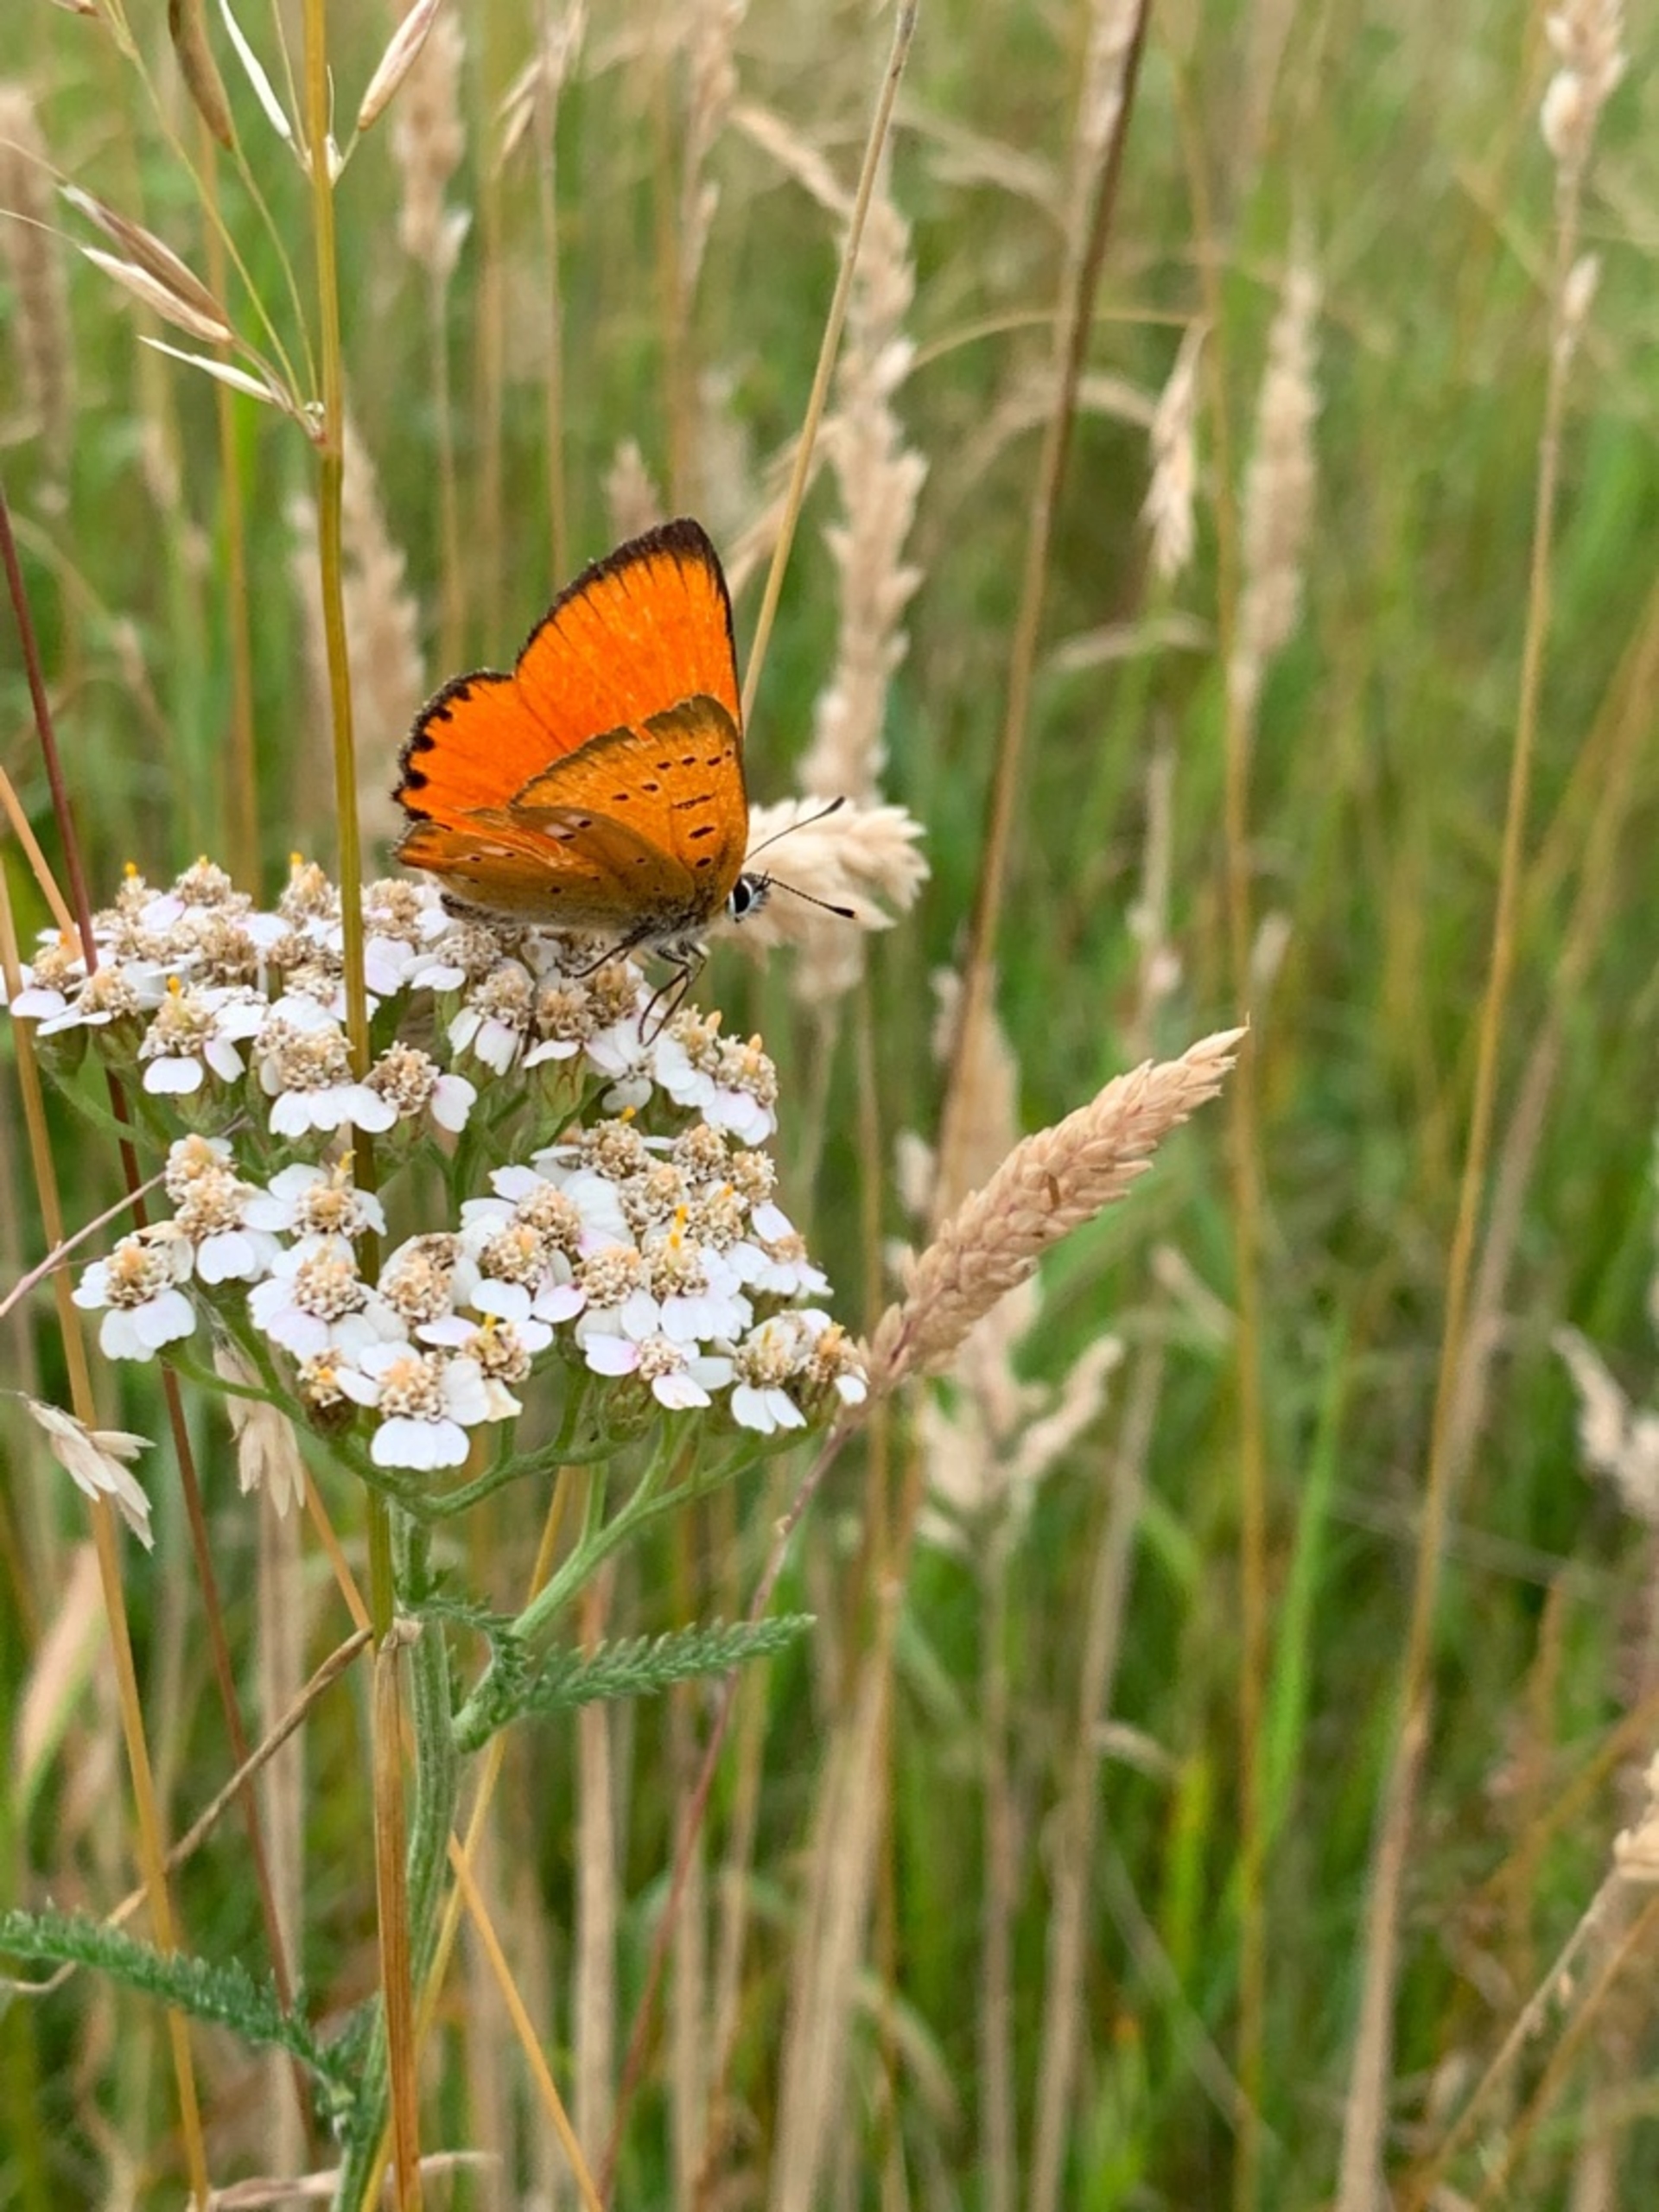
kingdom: Animalia
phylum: Arthropoda
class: Insecta
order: Lepidoptera
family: Lycaenidae
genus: Lycaena
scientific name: Lycaena virgaureae
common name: Dukatsommerfugl
